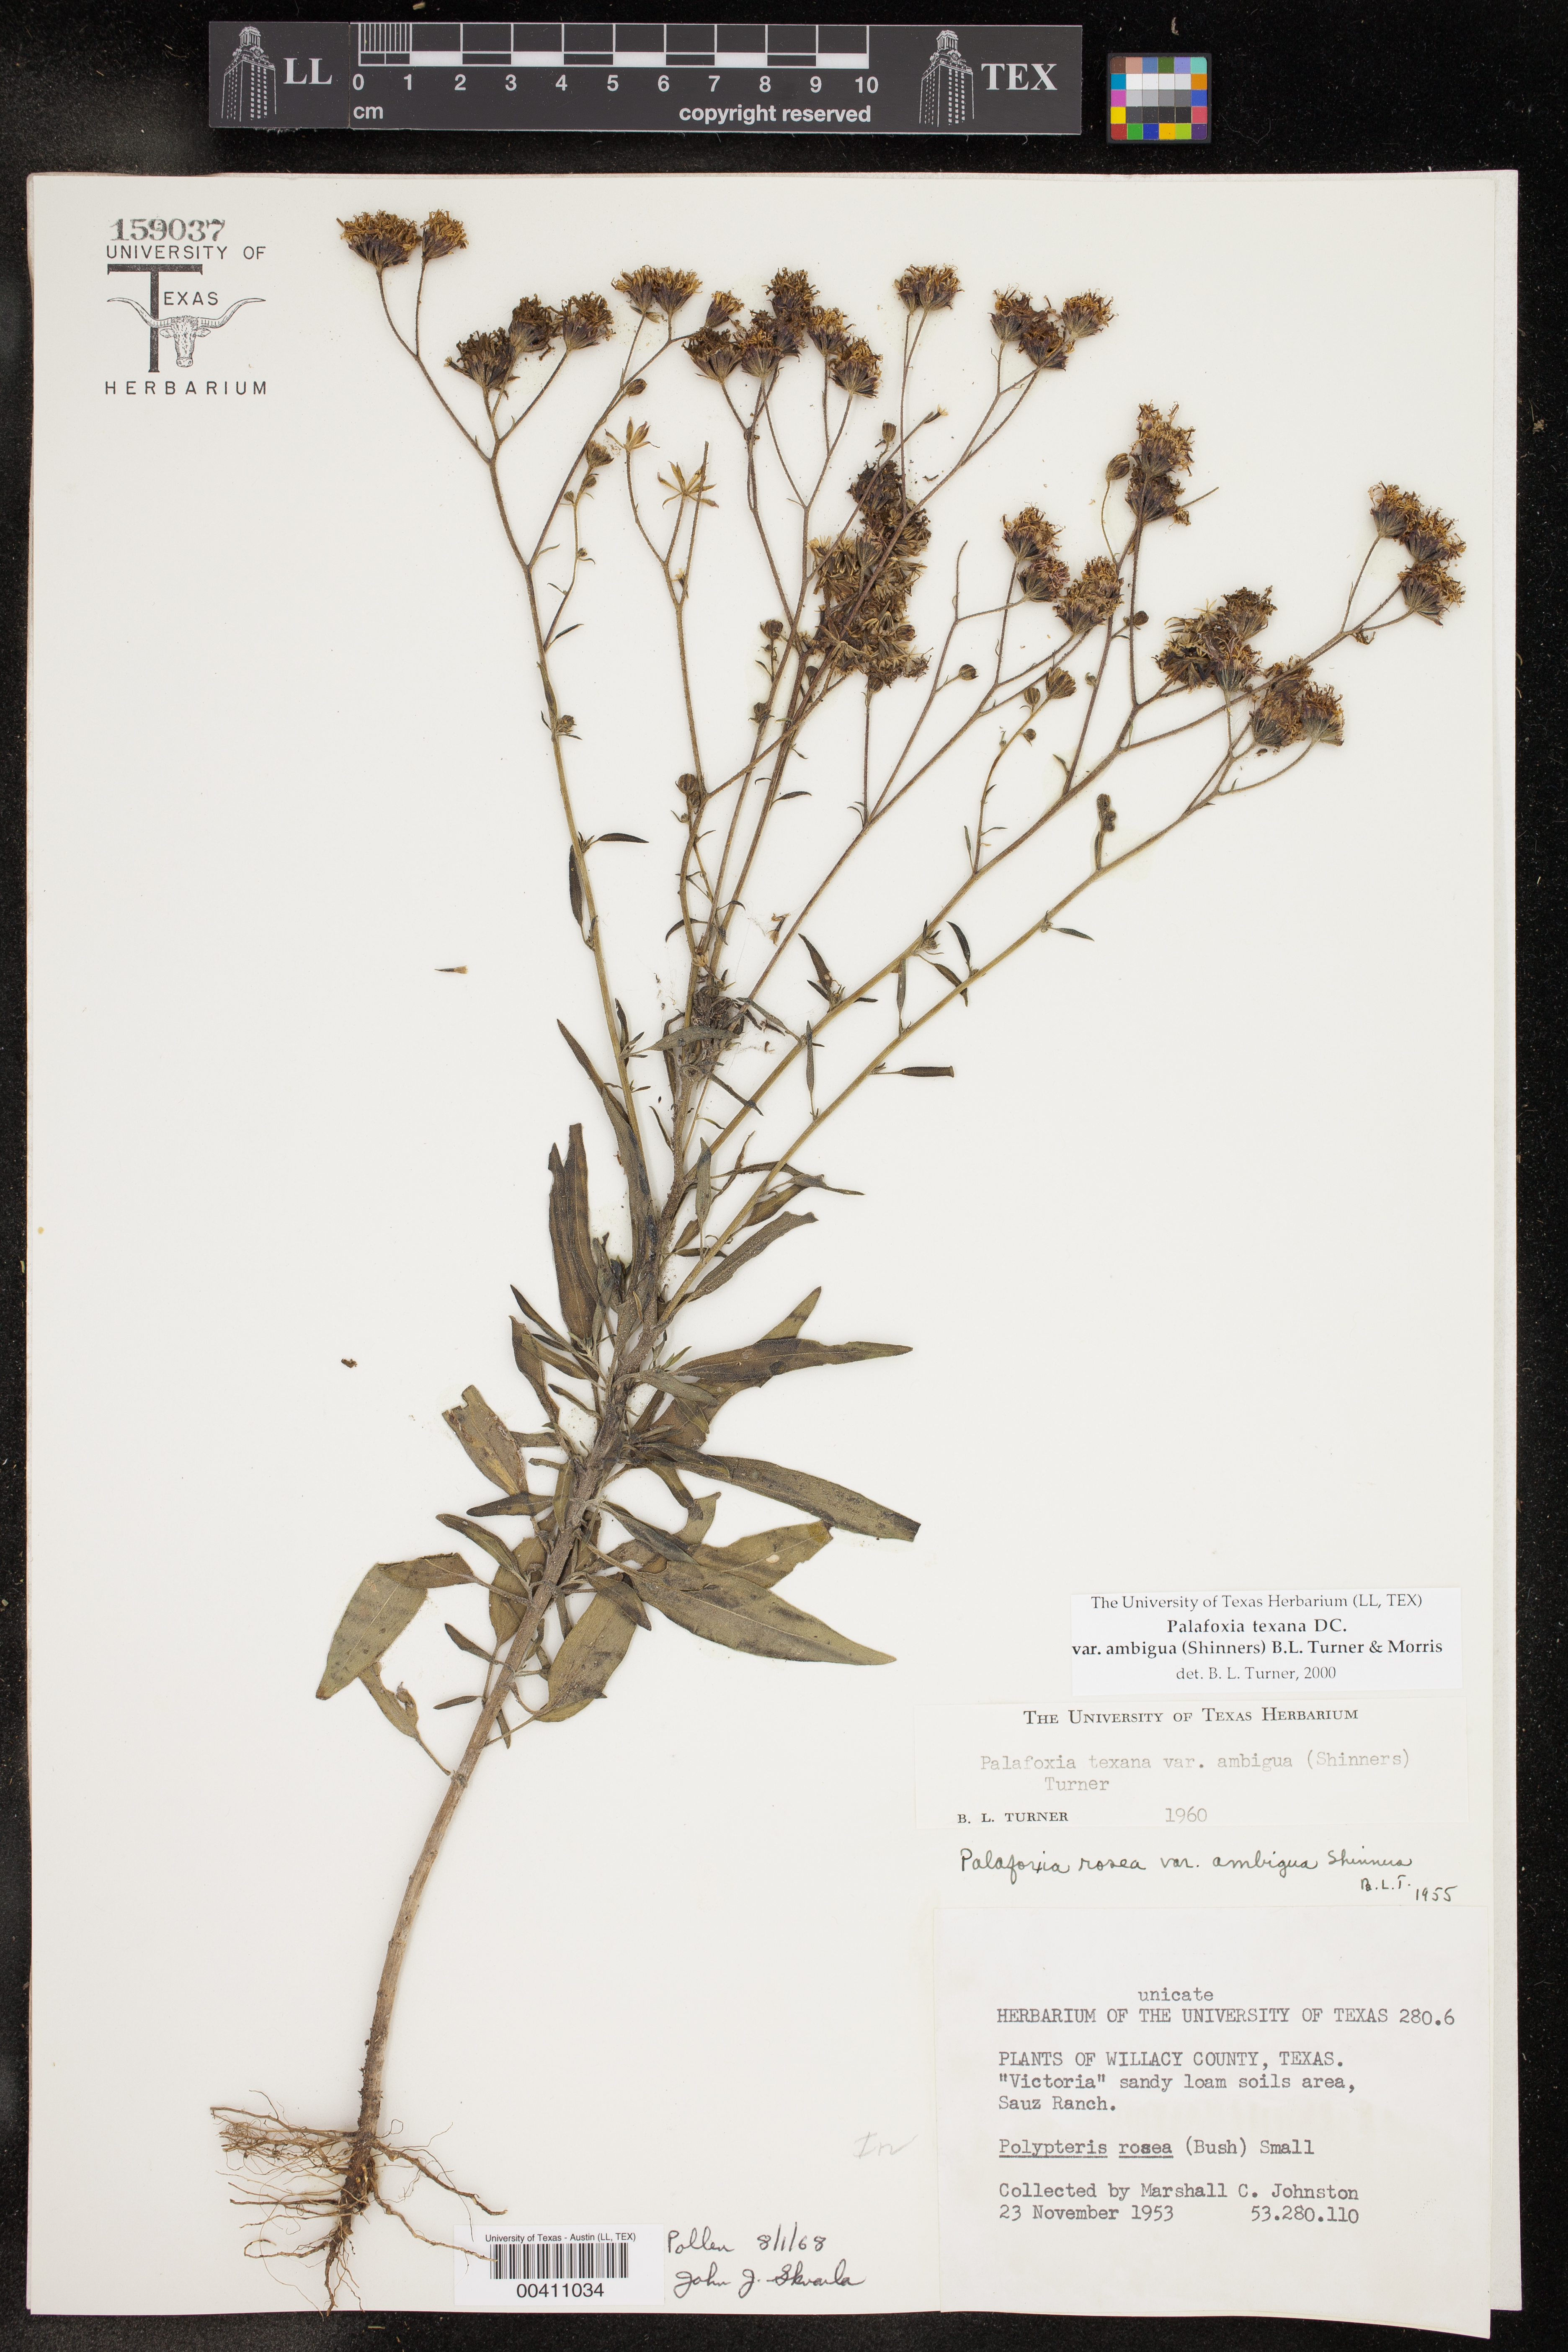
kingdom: Plantae
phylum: Tracheophyta
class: Magnoliopsida
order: Asterales
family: Asteraceae
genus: Palafoxia
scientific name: Palafoxia texana
